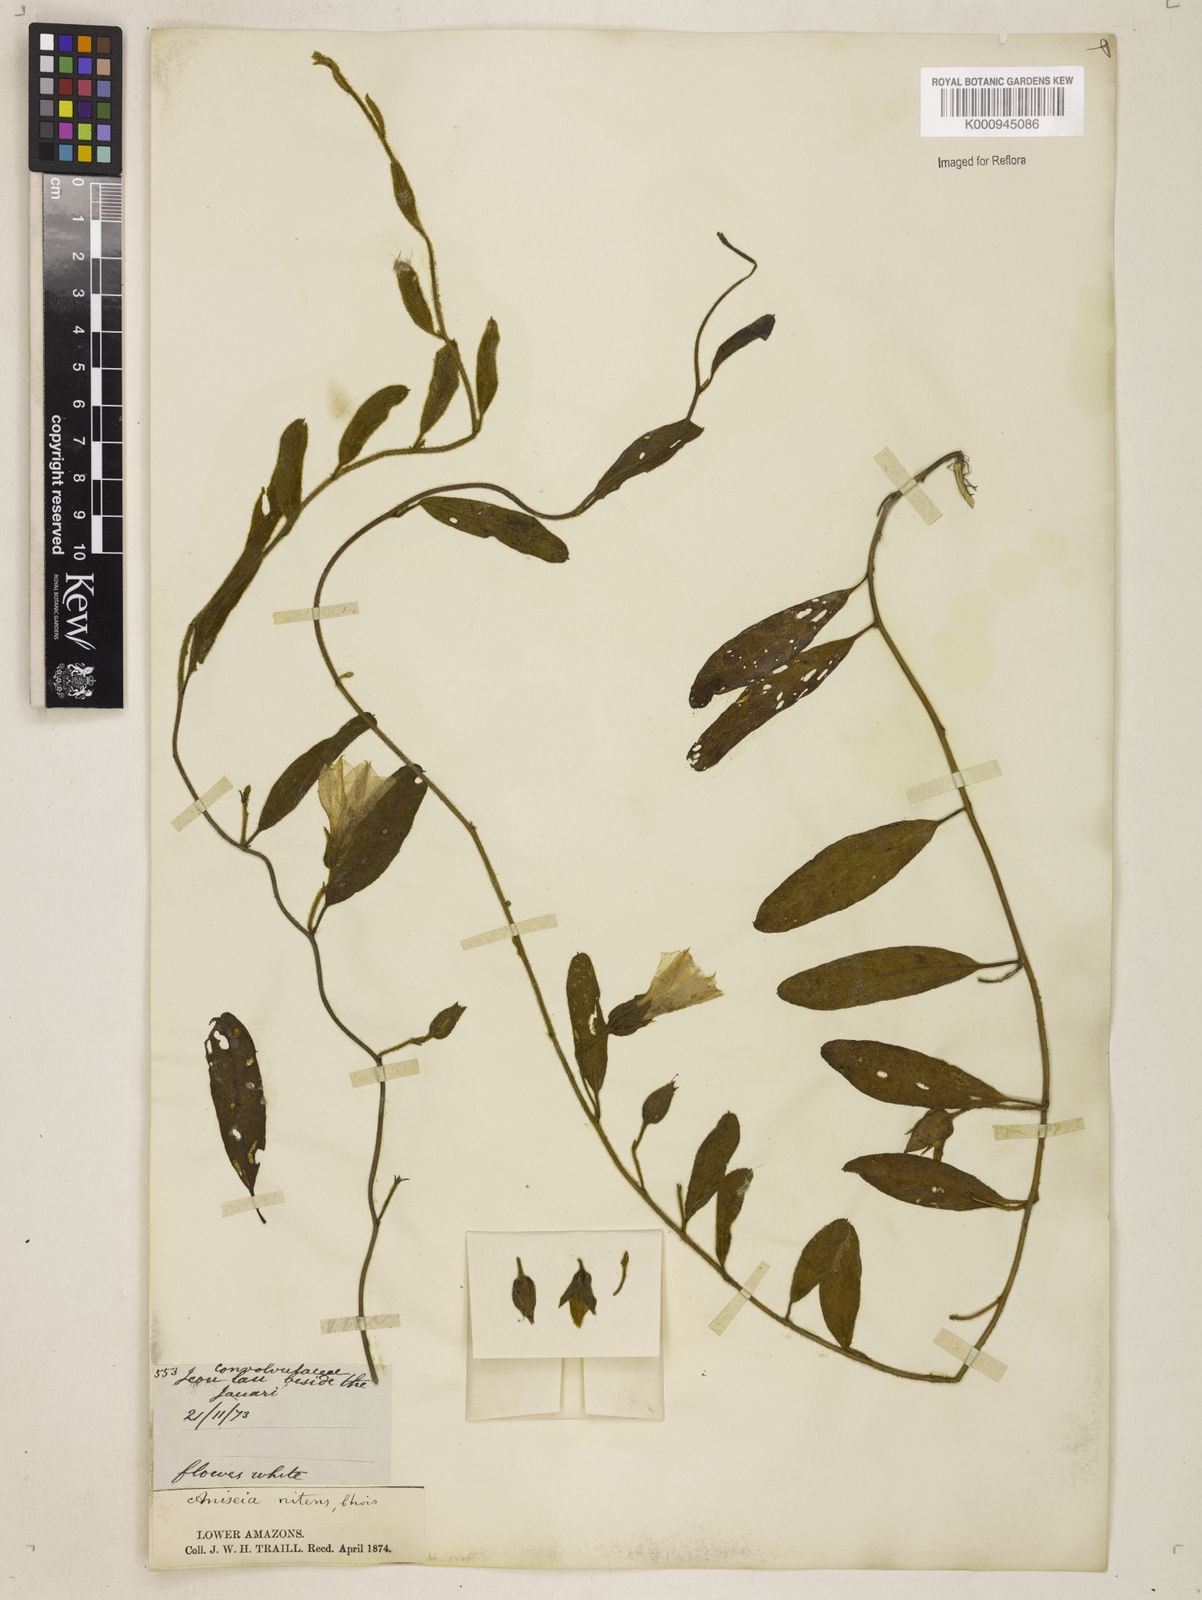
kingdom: Plantae
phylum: Tracheophyta
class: Magnoliopsida
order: Solanales
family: Convolvulaceae
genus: Aniseia
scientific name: Aniseia martinicensis
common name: Kulayadambu
